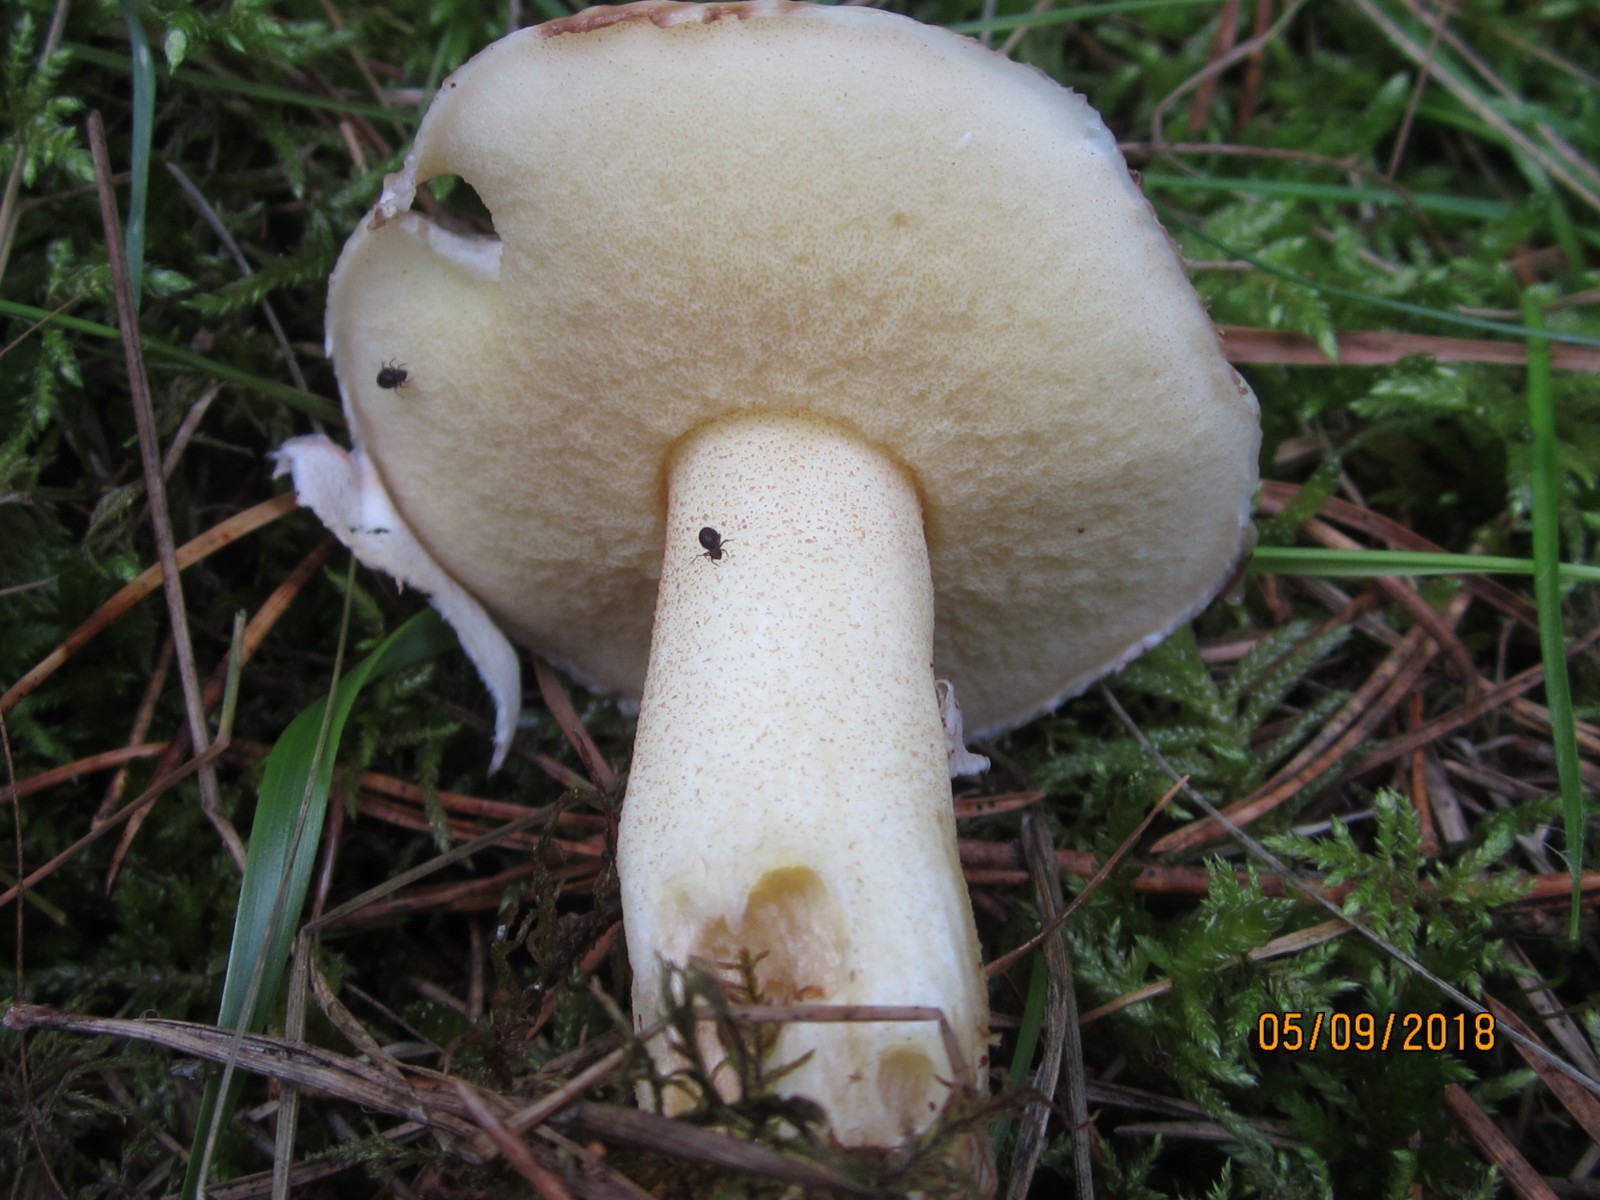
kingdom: Fungi
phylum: Basidiomycota
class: Agaricomycetes
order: Boletales
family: Suillaceae
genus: Suillus
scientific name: Suillus granulatus
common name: kornet slimrørhat
